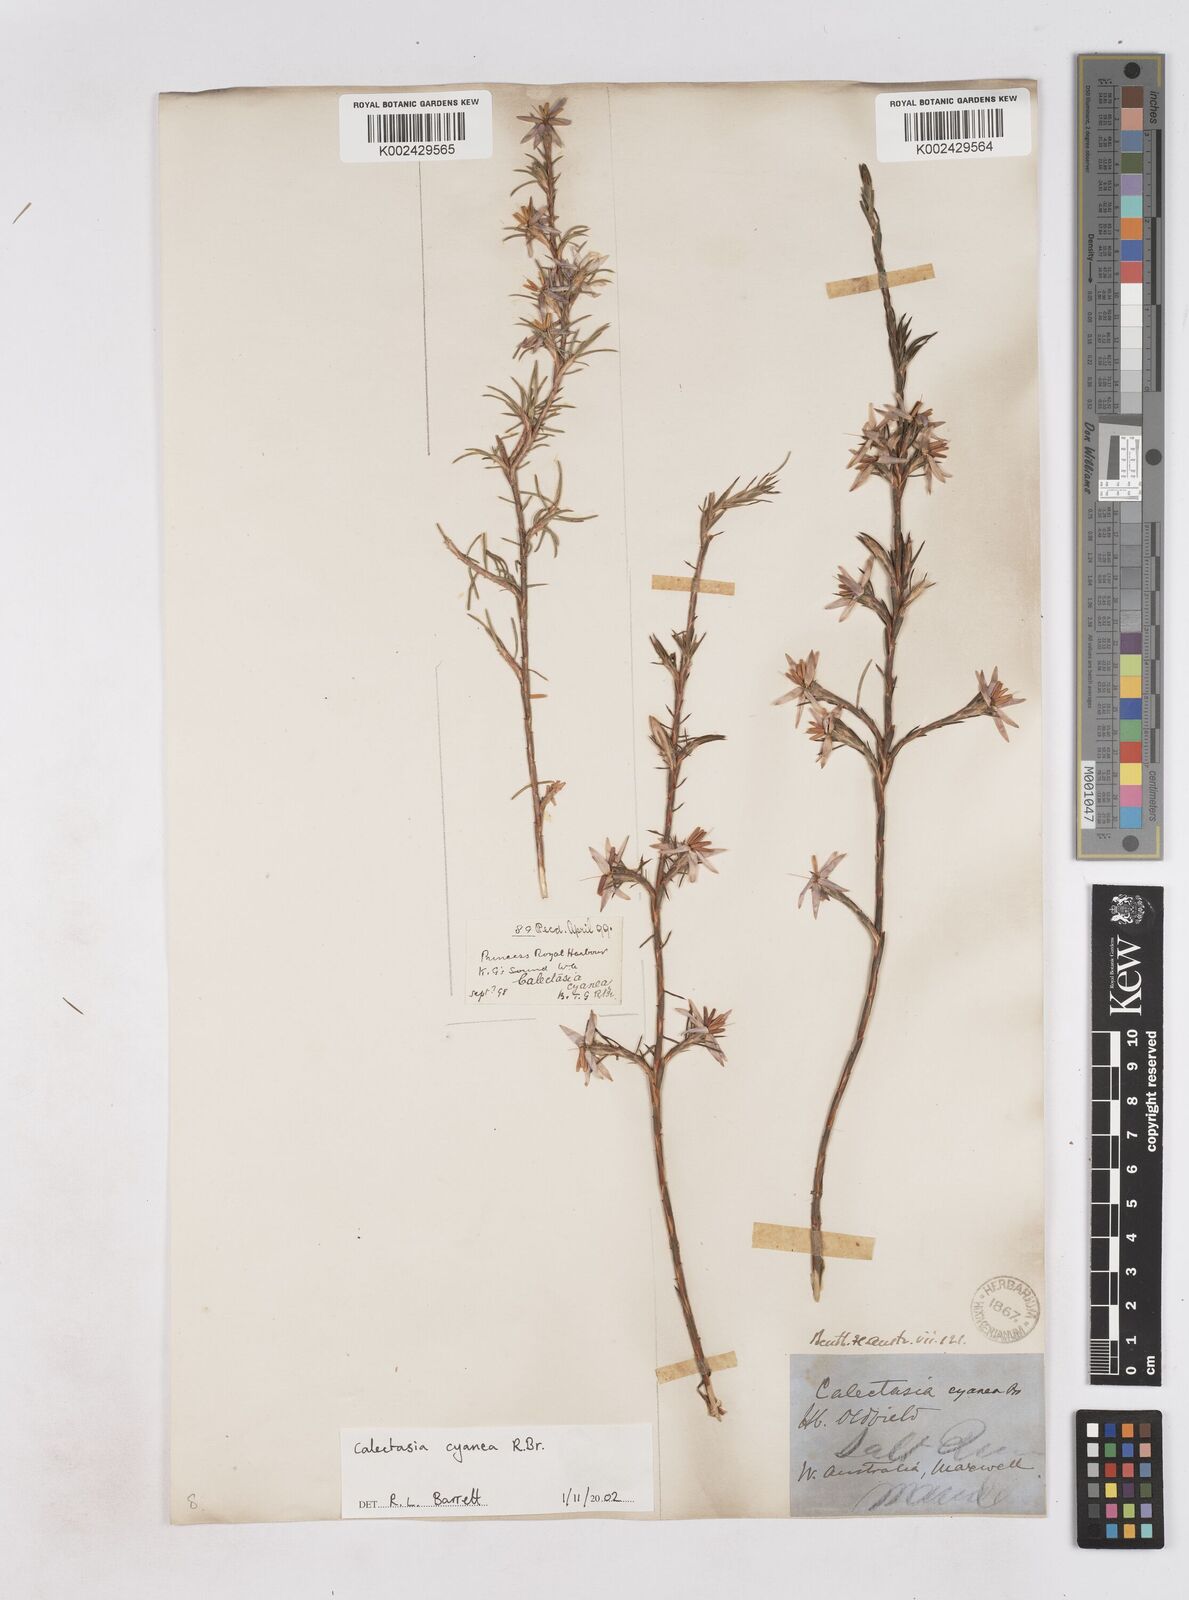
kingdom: Plantae
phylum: Tracheophyta
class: Liliopsida
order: Arecales
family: Dasypogonaceae
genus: Calectasia
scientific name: Calectasia cyanea
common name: Blue tinsel-lily
